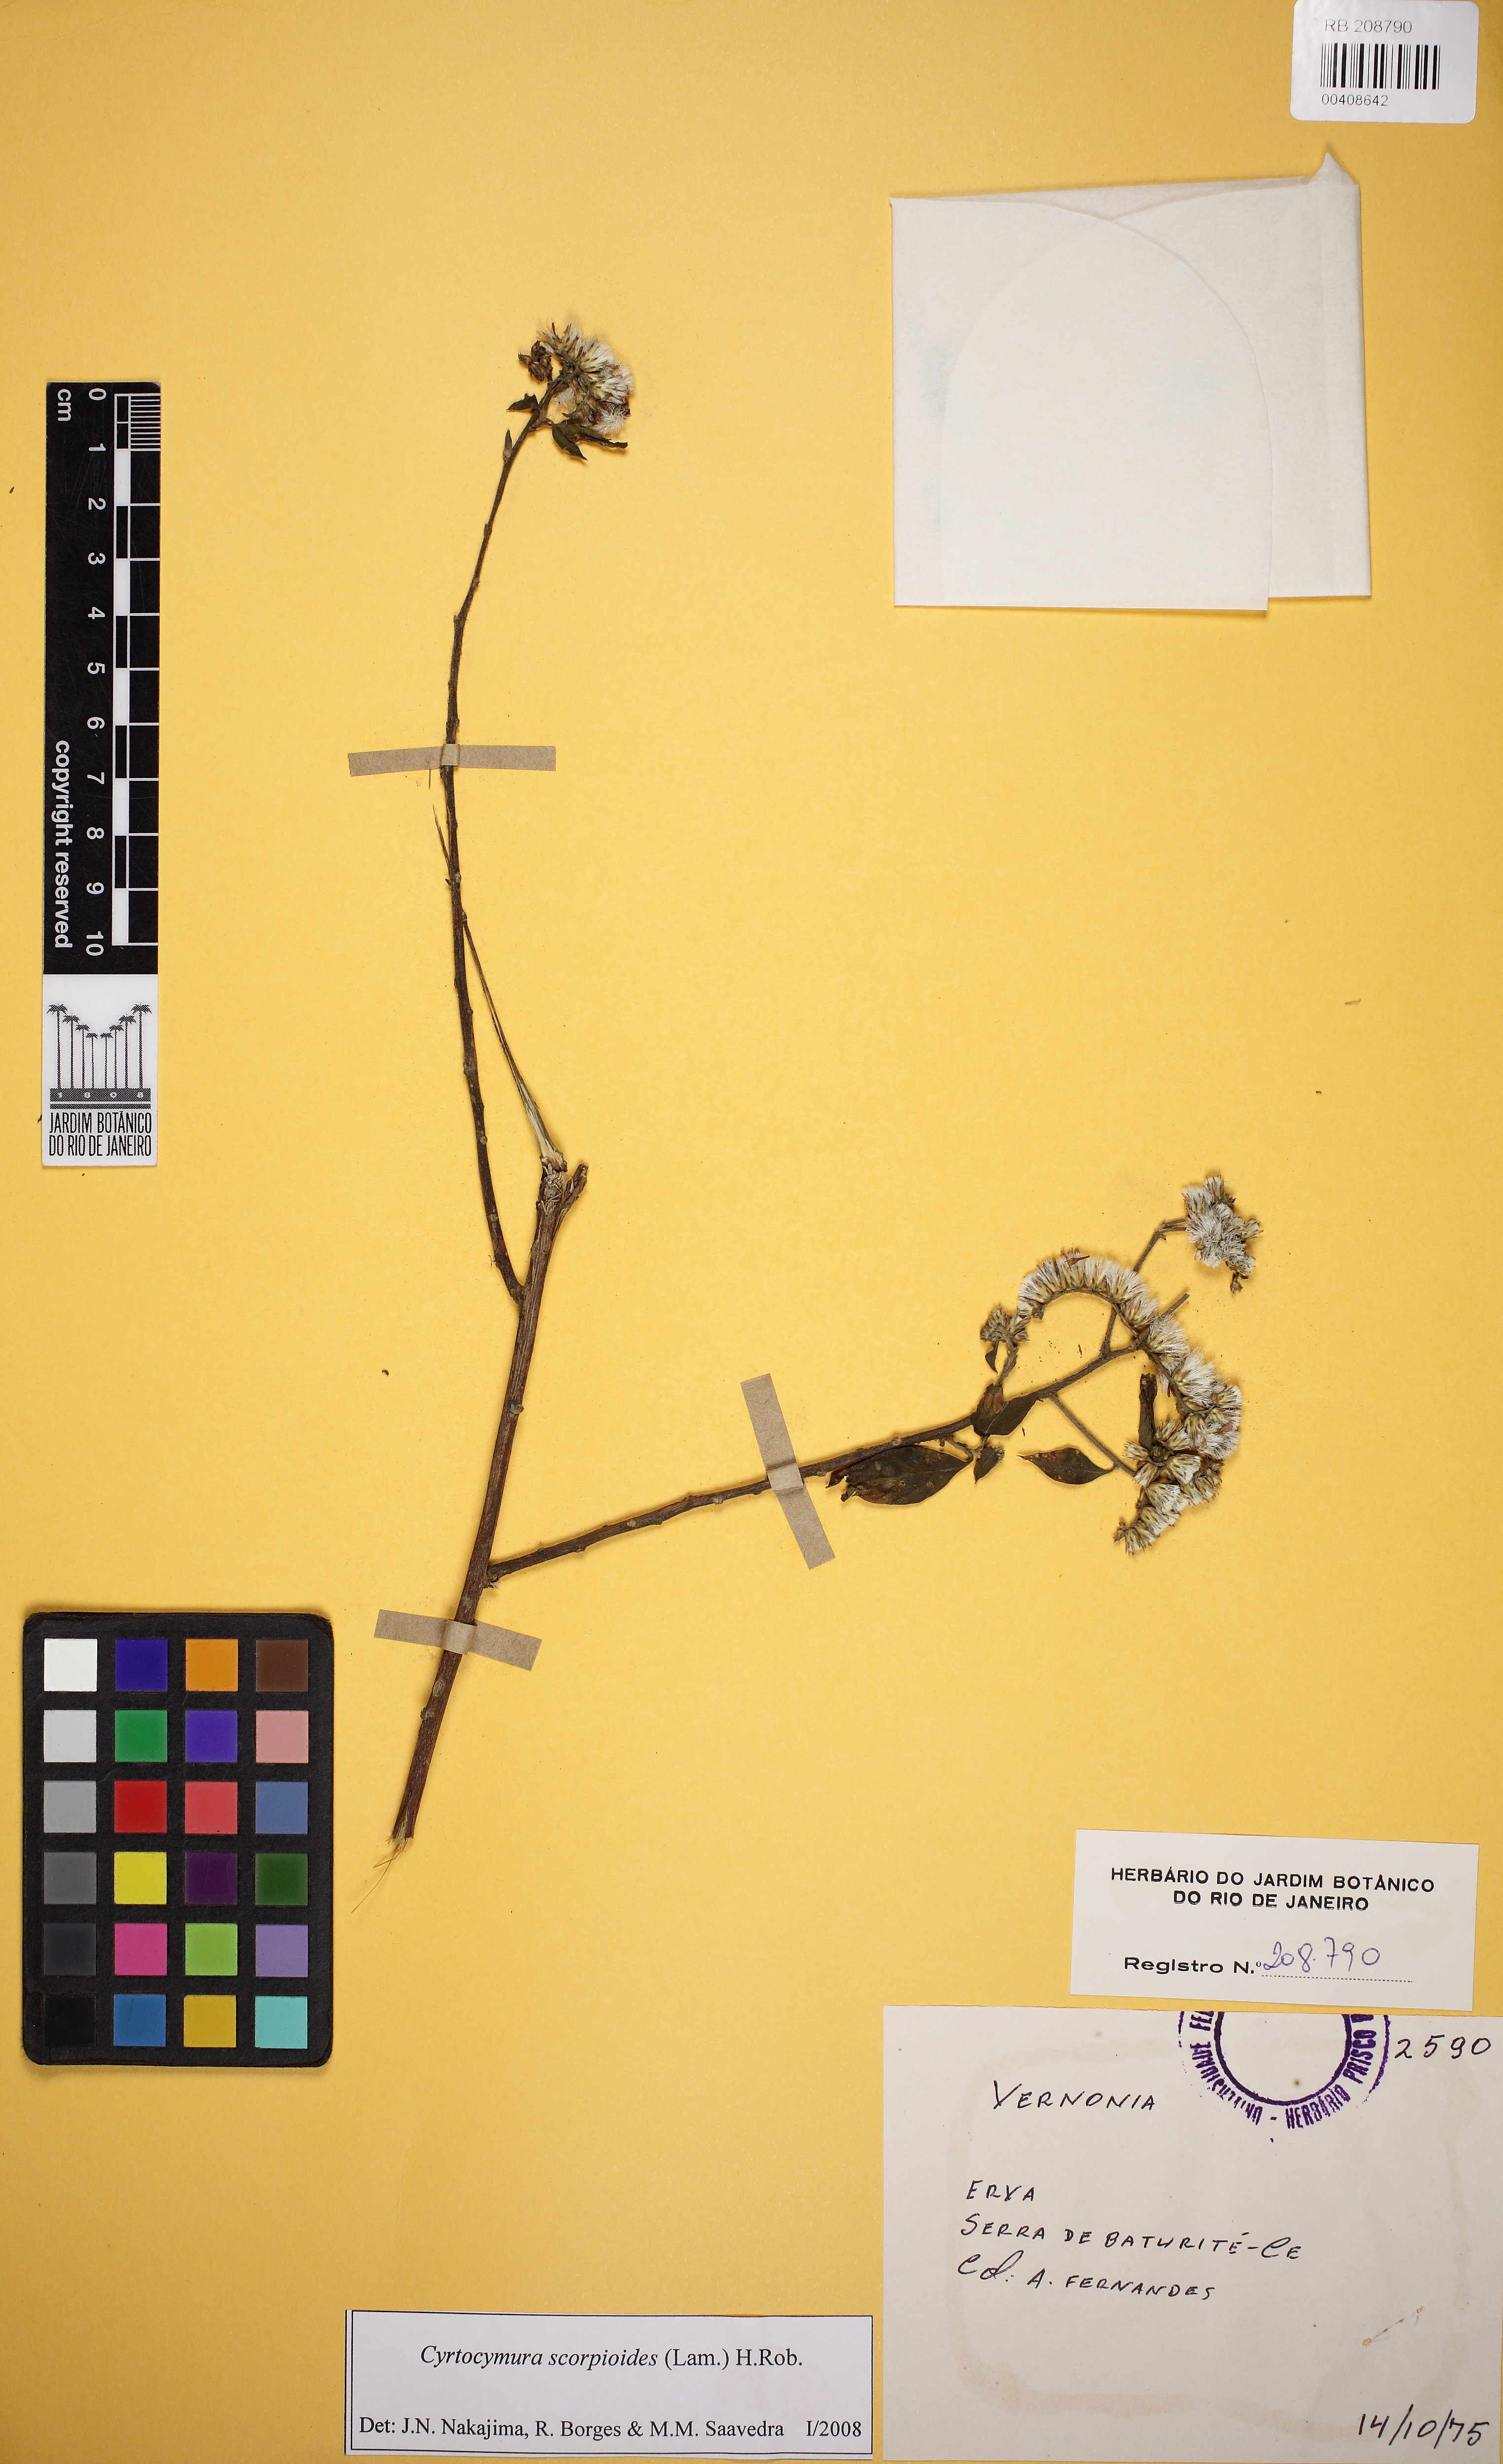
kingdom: Plantae
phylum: Tracheophyta
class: Magnoliopsida
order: Asterales
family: Asteraceae
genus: Cyrtocymura
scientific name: Cyrtocymura scorpioides
